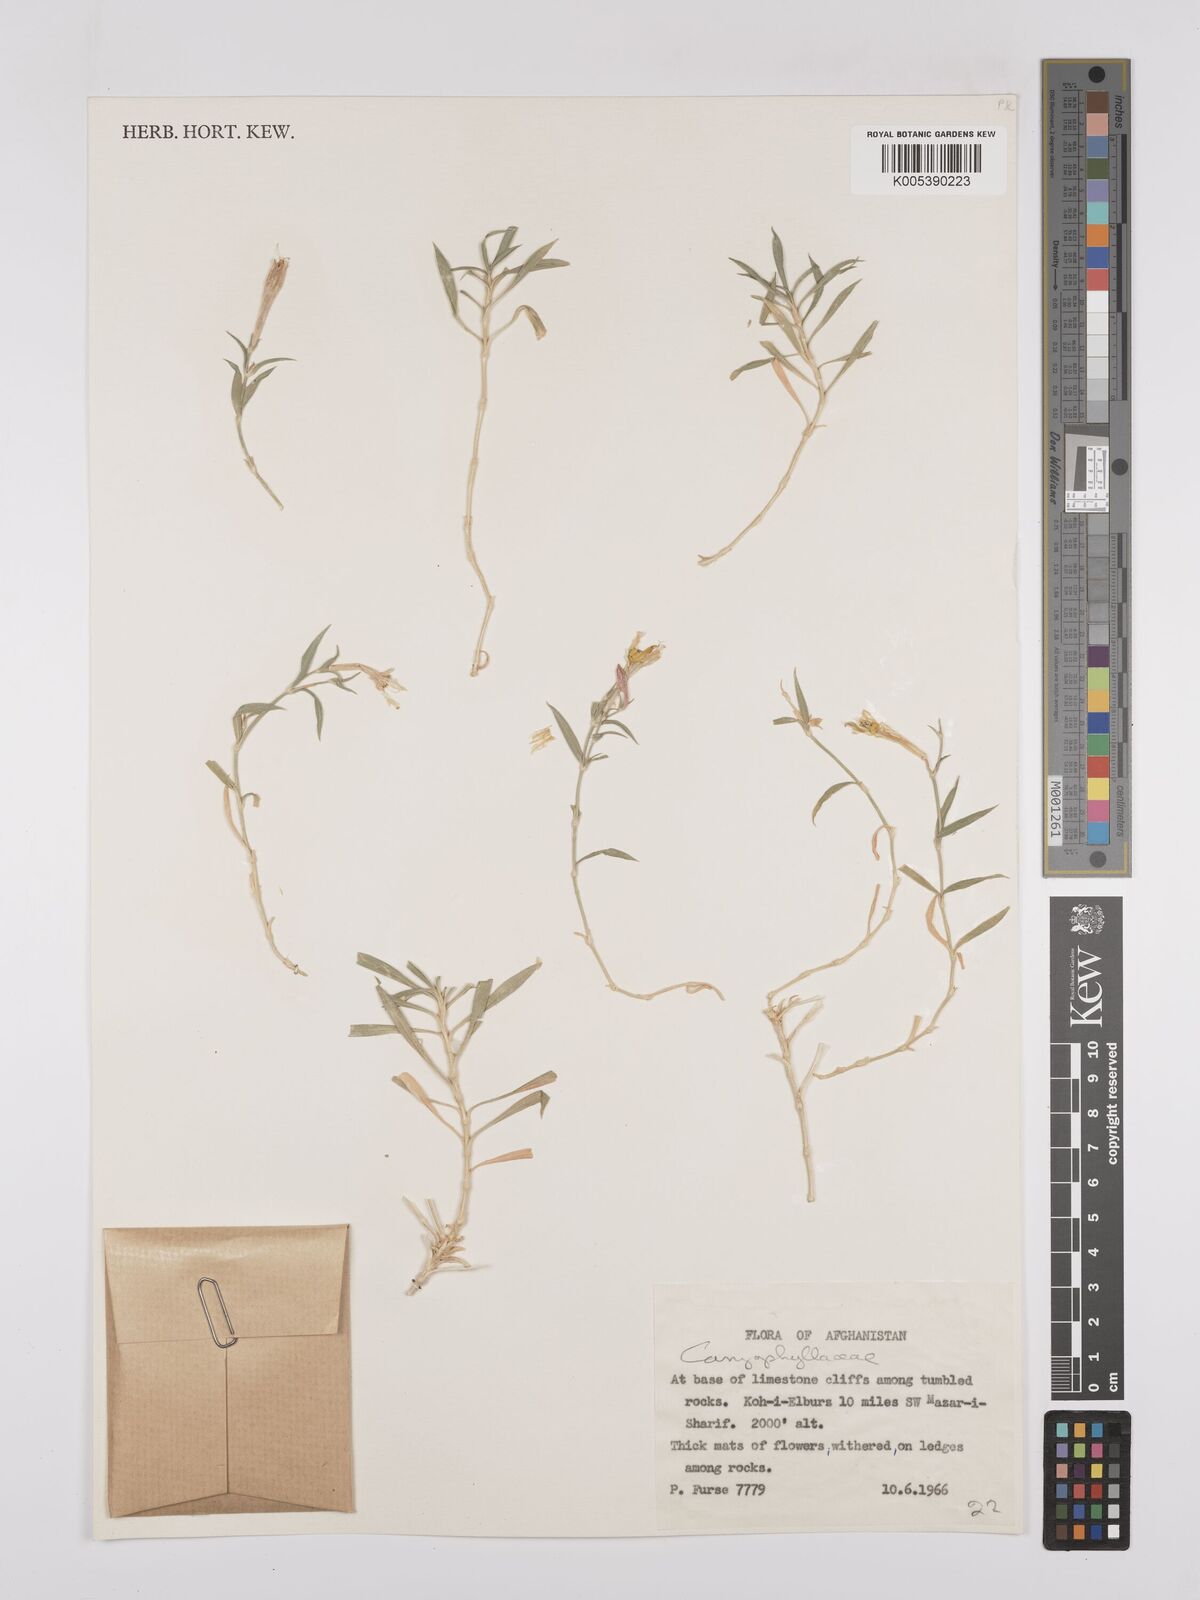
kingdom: Plantae
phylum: Tracheophyta
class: Magnoliopsida
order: Caryophyllales
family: Caryophyllaceae
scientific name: Caryophyllaceae
